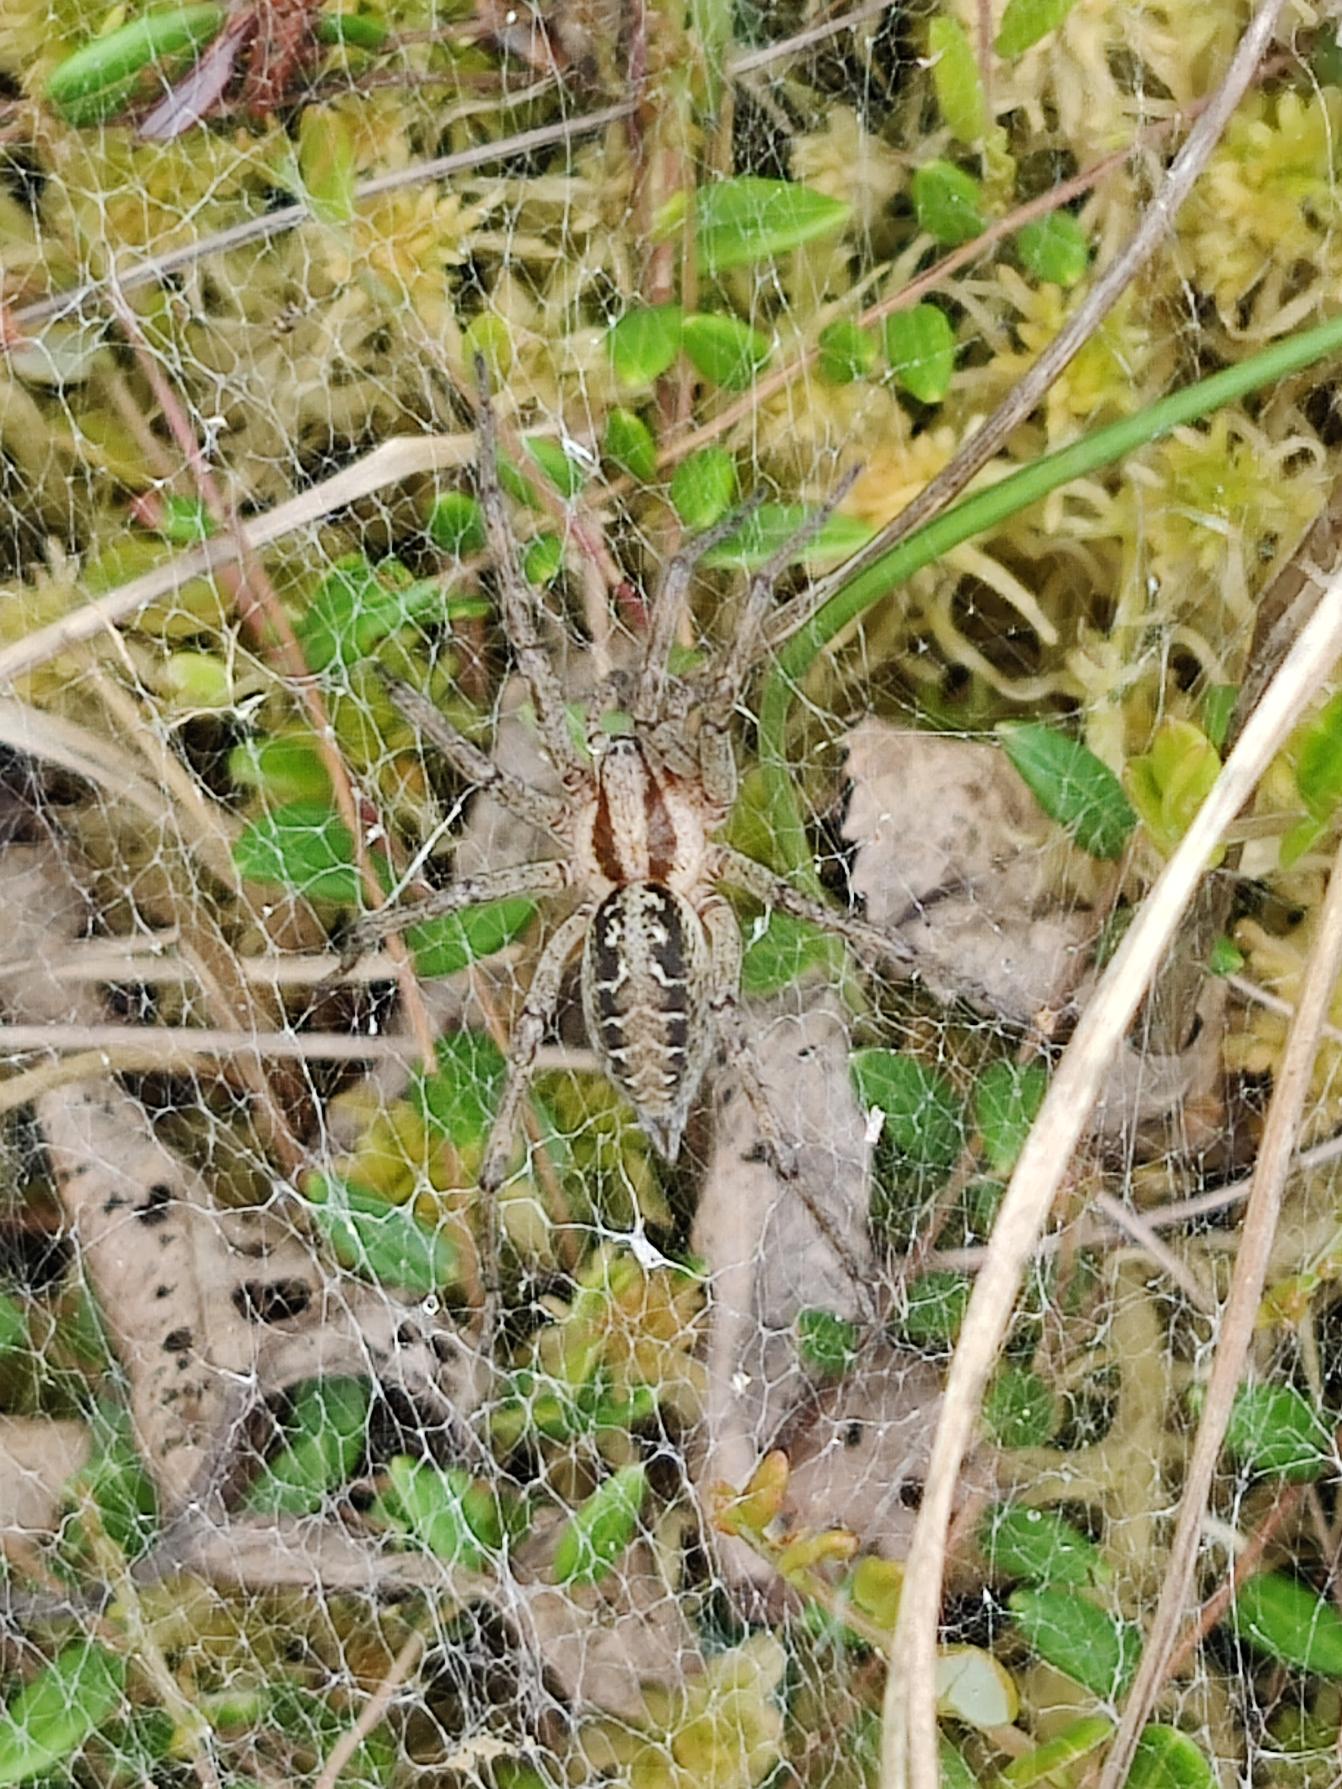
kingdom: Animalia
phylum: Arthropoda
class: Arachnida
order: Araneae
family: Agelenidae
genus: Agelena
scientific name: Agelena labyrinthica
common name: Labyrintedderkop
